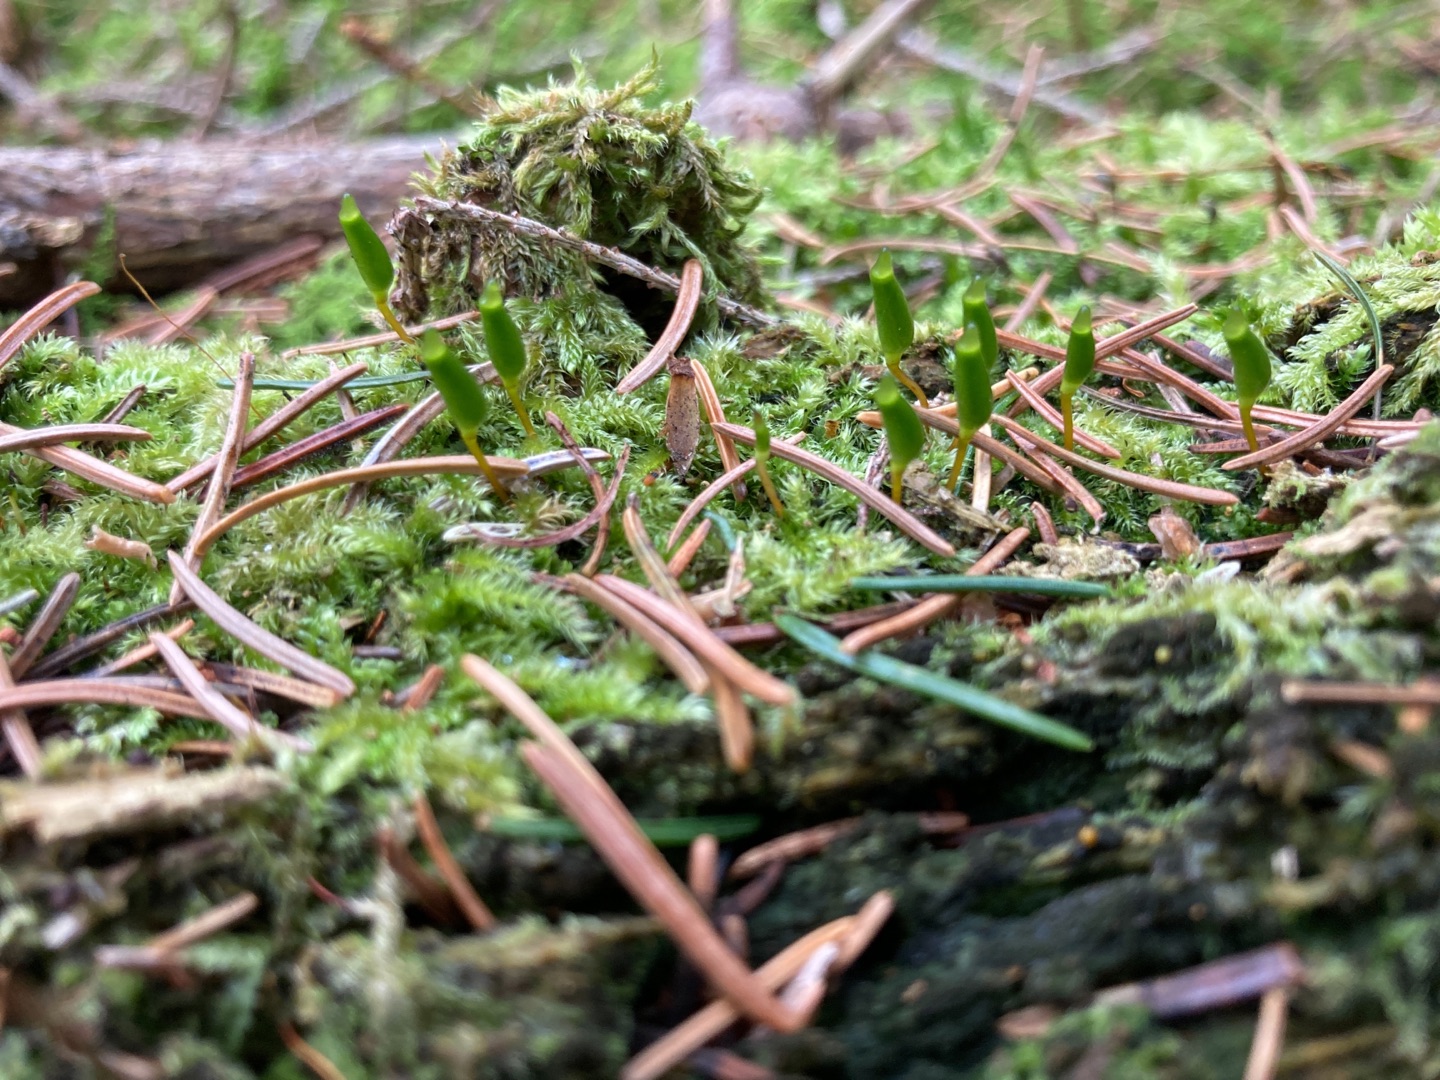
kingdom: Plantae
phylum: Bryophyta
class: Bryopsida
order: Buxbaumiales
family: Buxbaumiaceae
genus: Buxbaumia
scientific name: Buxbaumia viridis
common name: Grøn buxbaumia
